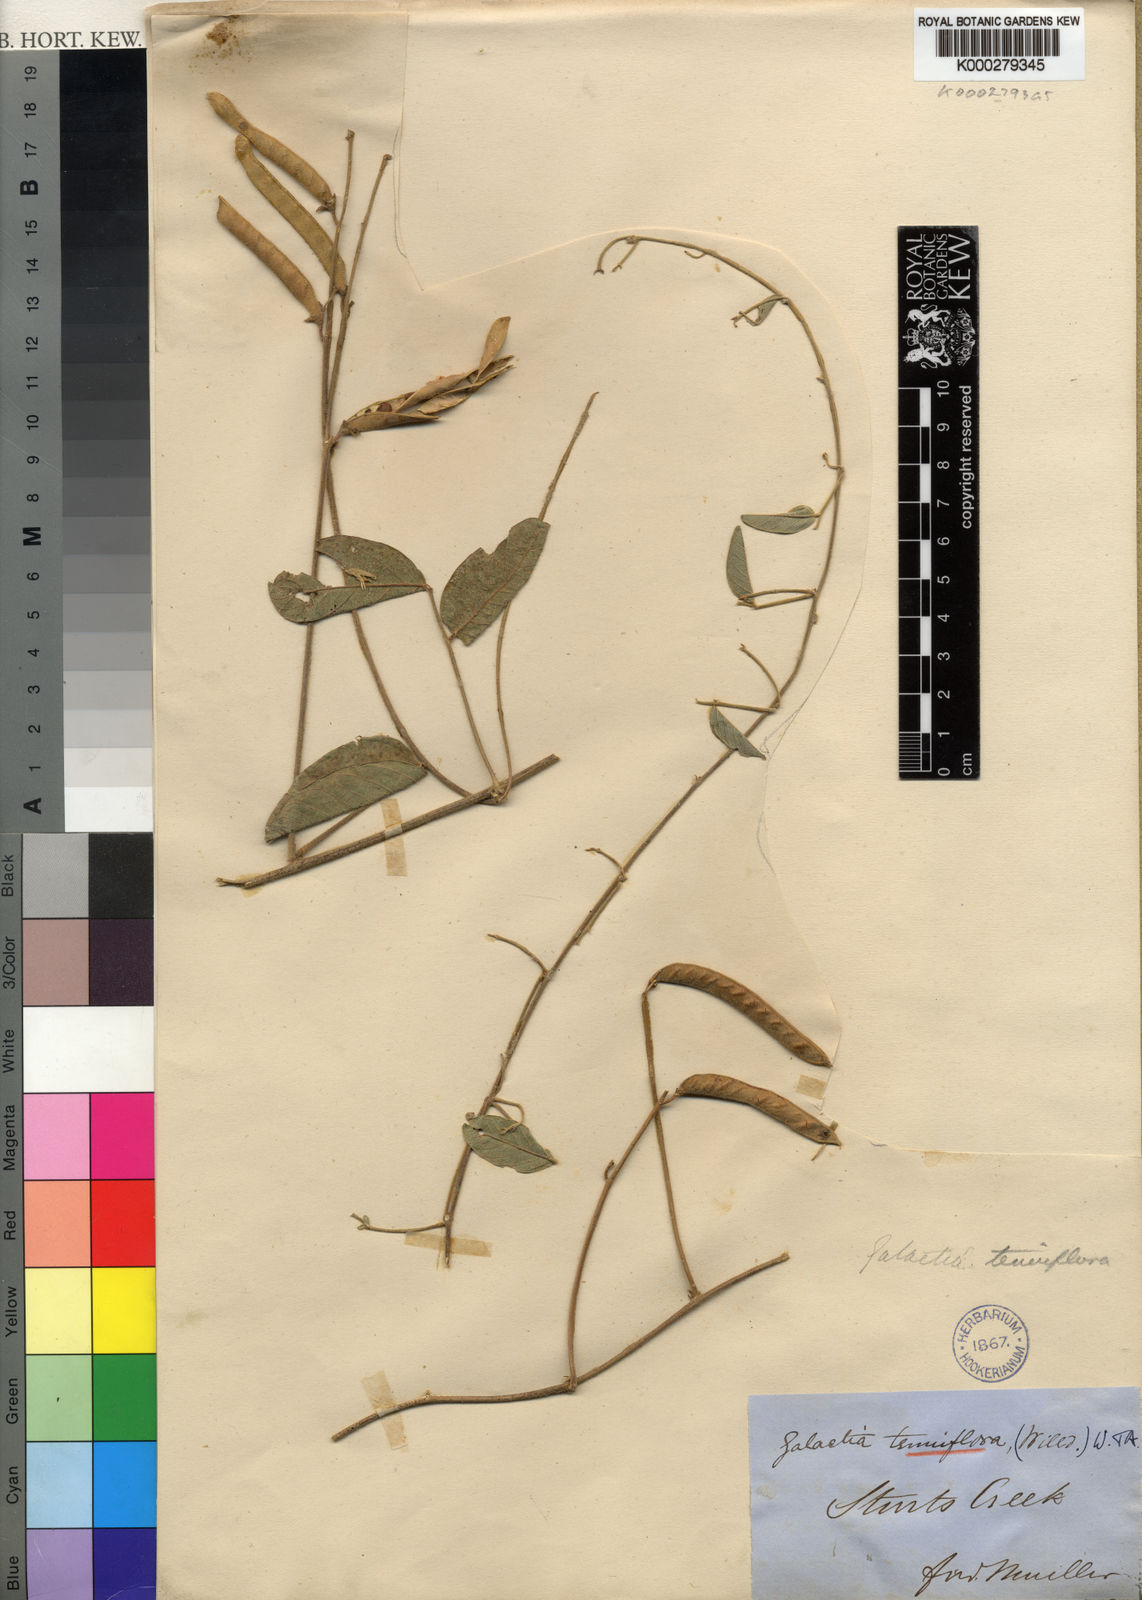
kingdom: Plantae
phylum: Tracheophyta
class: Magnoliopsida
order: Fabales
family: Fabaceae
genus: Galactia
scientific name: Galactia striata
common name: Florida hammock milkpea
